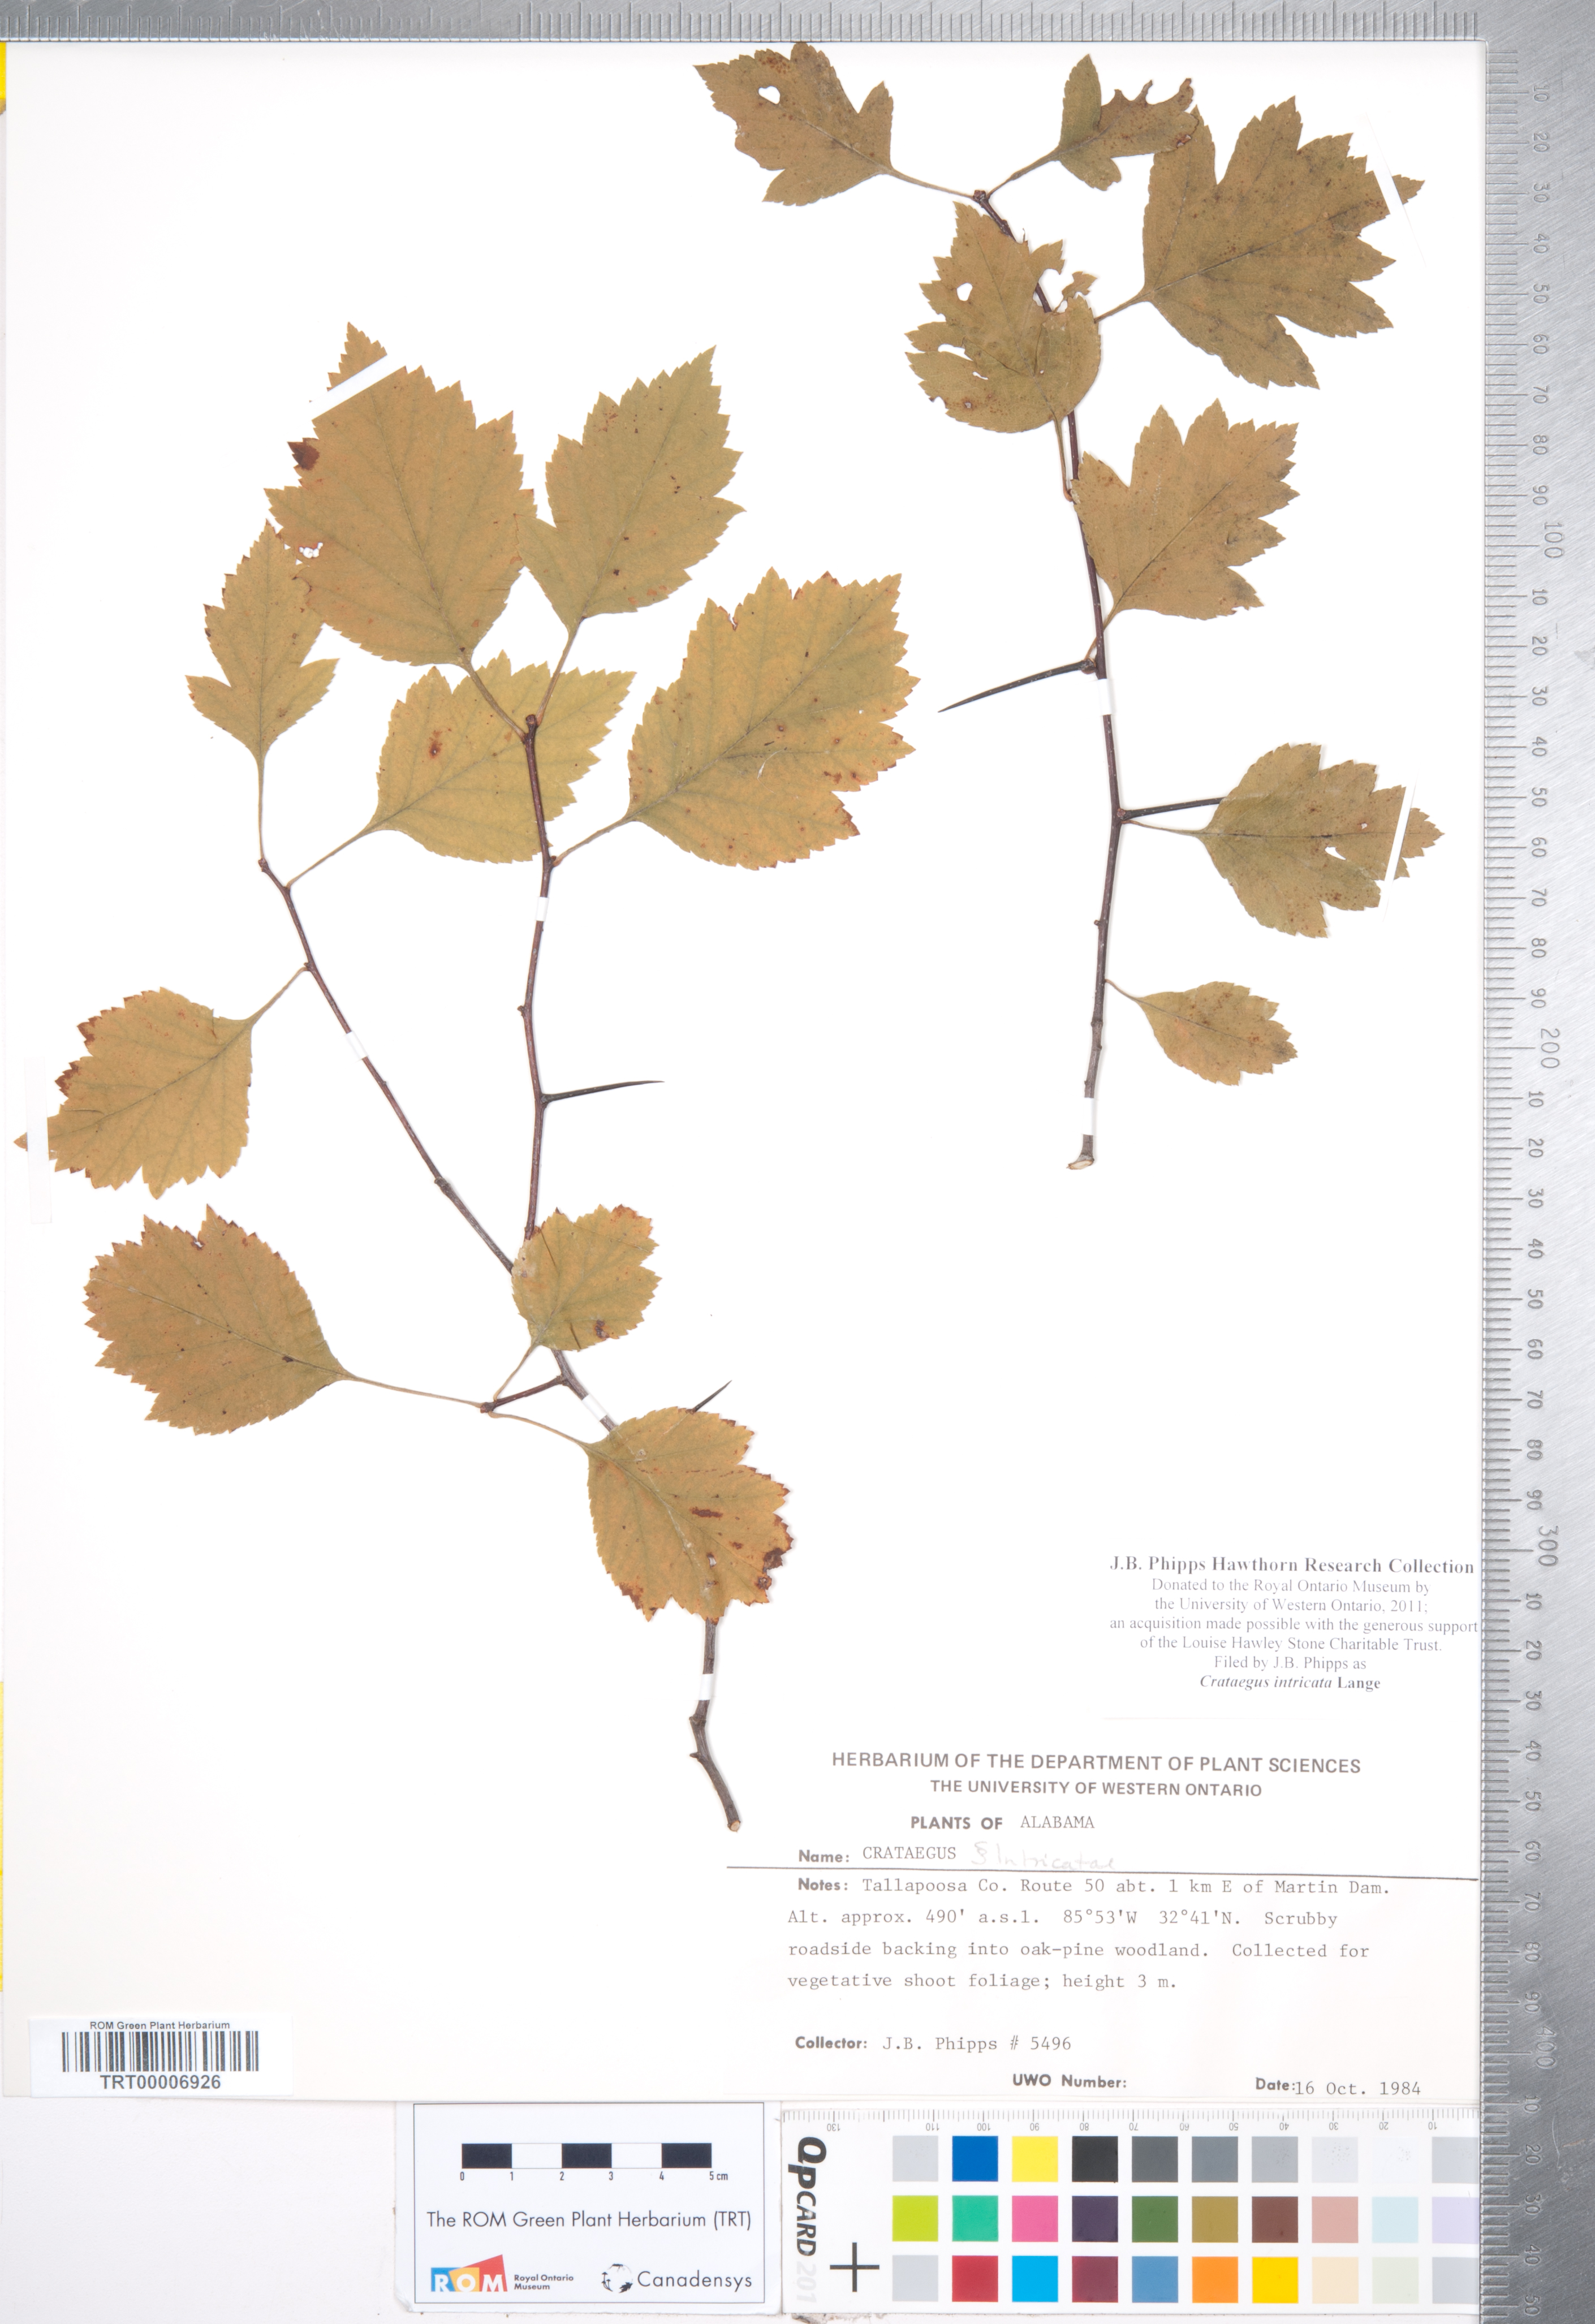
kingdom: Plantae
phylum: Tracheophyta
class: Magnoliopsida
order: Rosales
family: Rosaceae
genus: Crataegus
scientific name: Crataegus intricata
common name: Biltmore hawthorn
